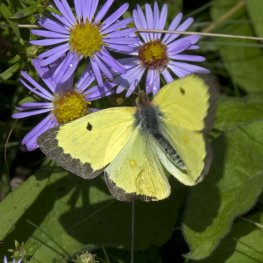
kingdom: Animalia
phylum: Arthropoda
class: Insecta
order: Lepidoptera
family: Pieridae
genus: Colias
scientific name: Colias philodice
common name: Clouded Sulphur
